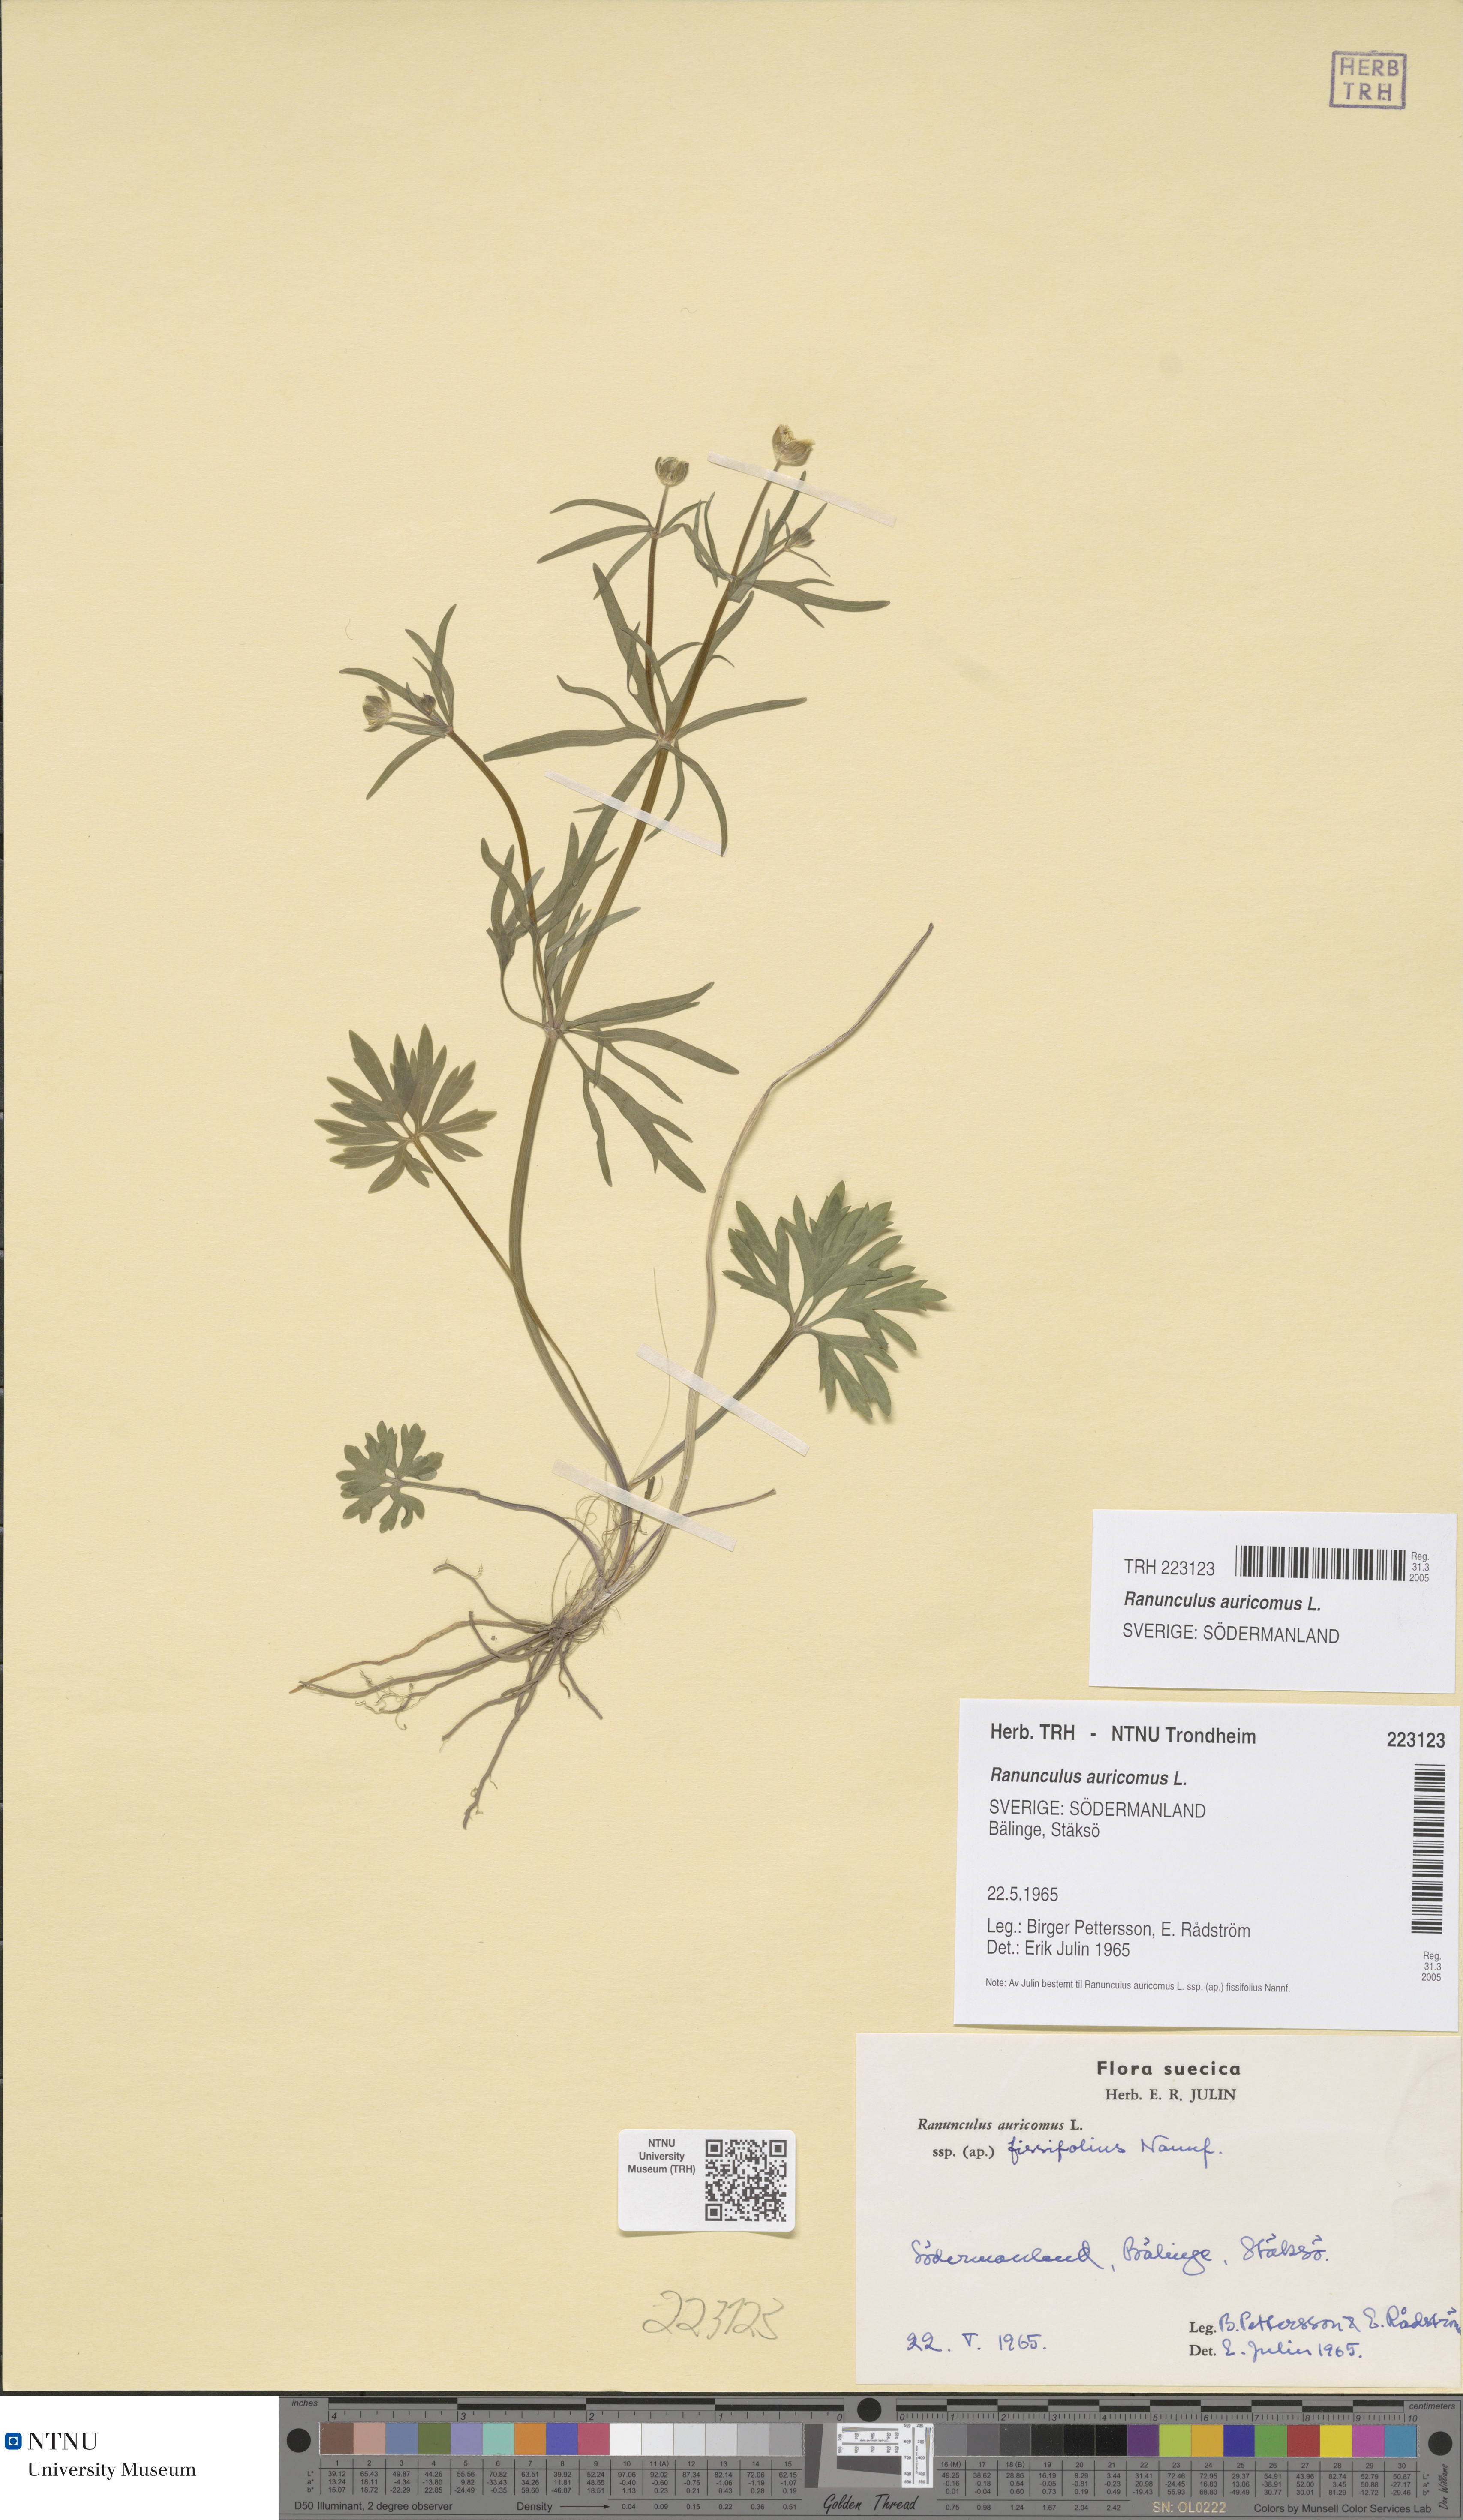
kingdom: Plantae
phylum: Tracheophyta
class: Magnoliopsida
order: Ranunculales
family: Ranunculaceae
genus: Ranunculus
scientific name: Ranunculus auricomus
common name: Goldilocks buttercup
